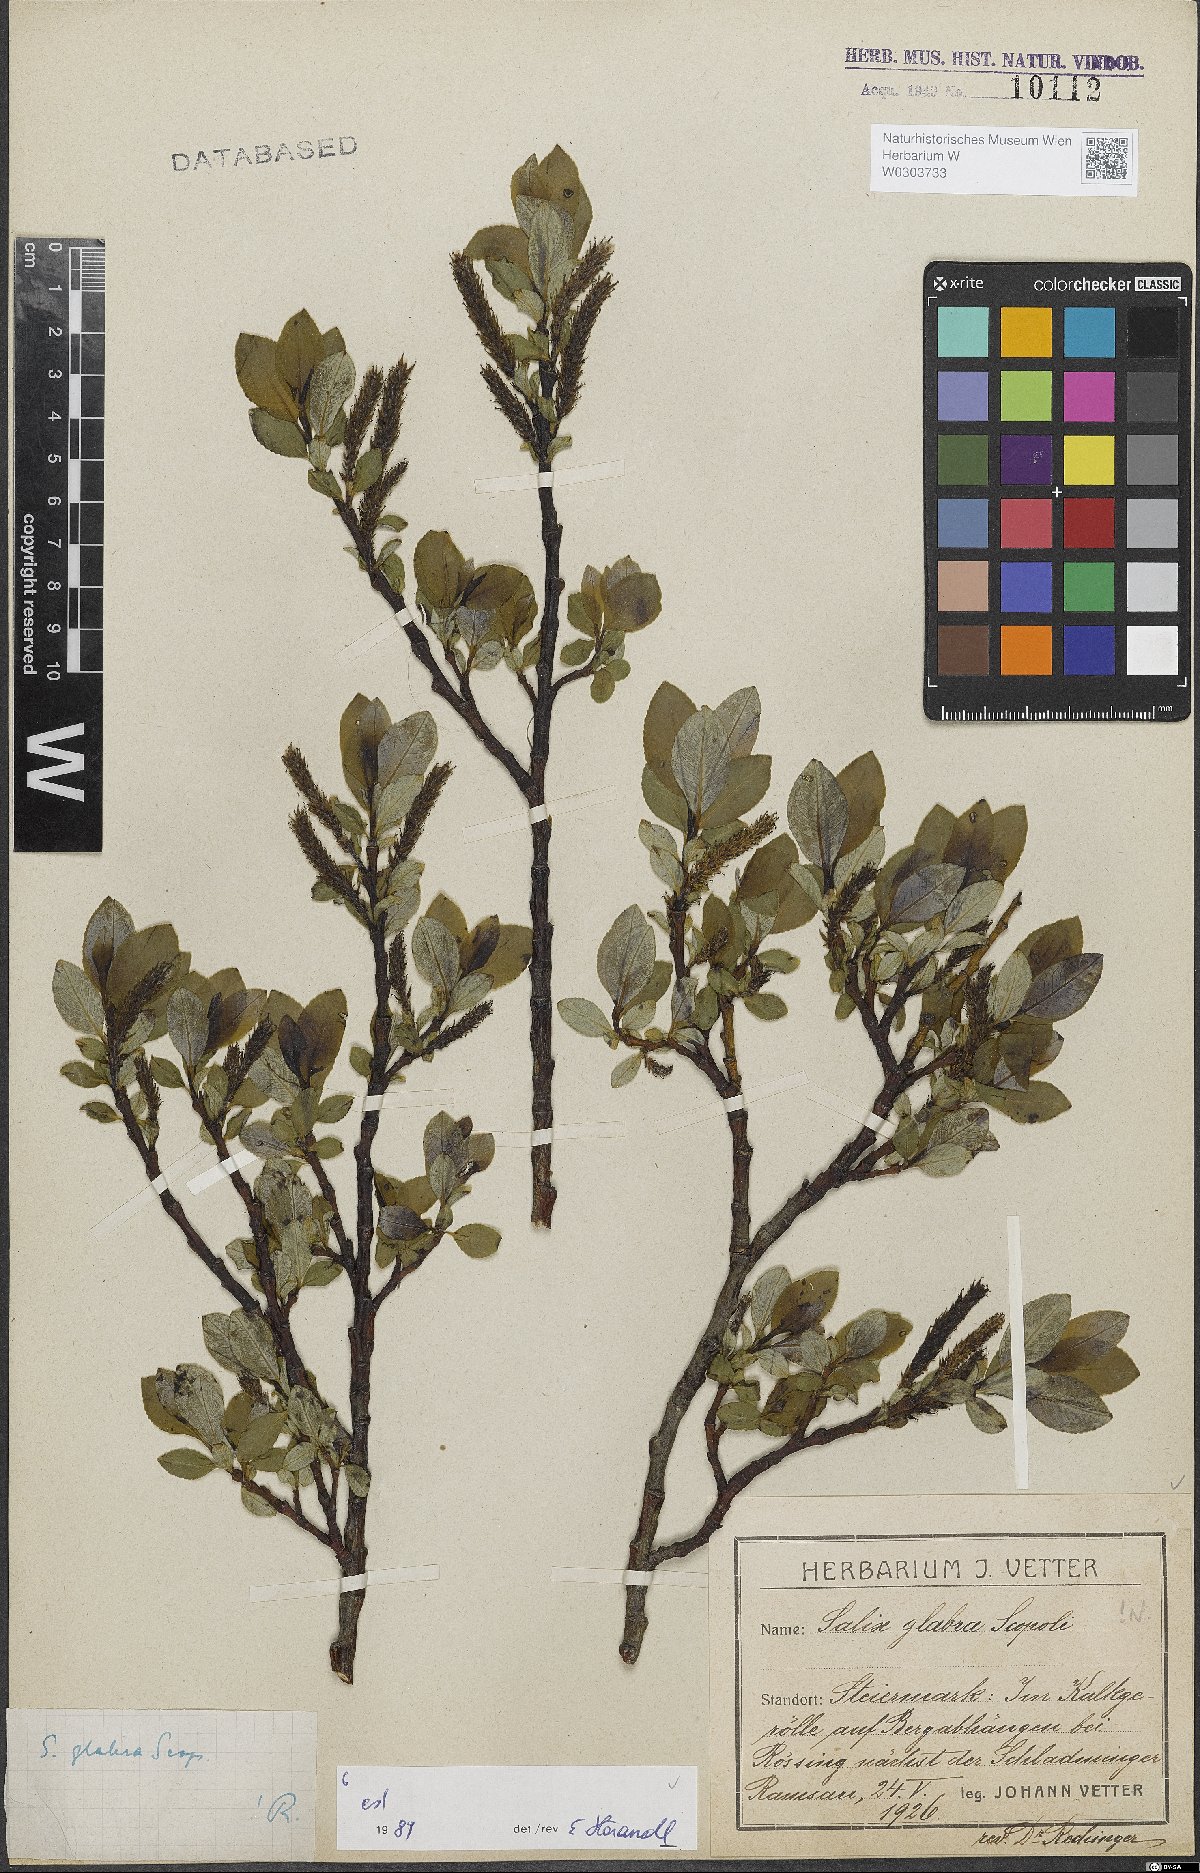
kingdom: Plantae
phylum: Tracheophyta
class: Magnoliopsida
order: Malpighiales
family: Salicaceae
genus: Salix
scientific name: Salix glabra
